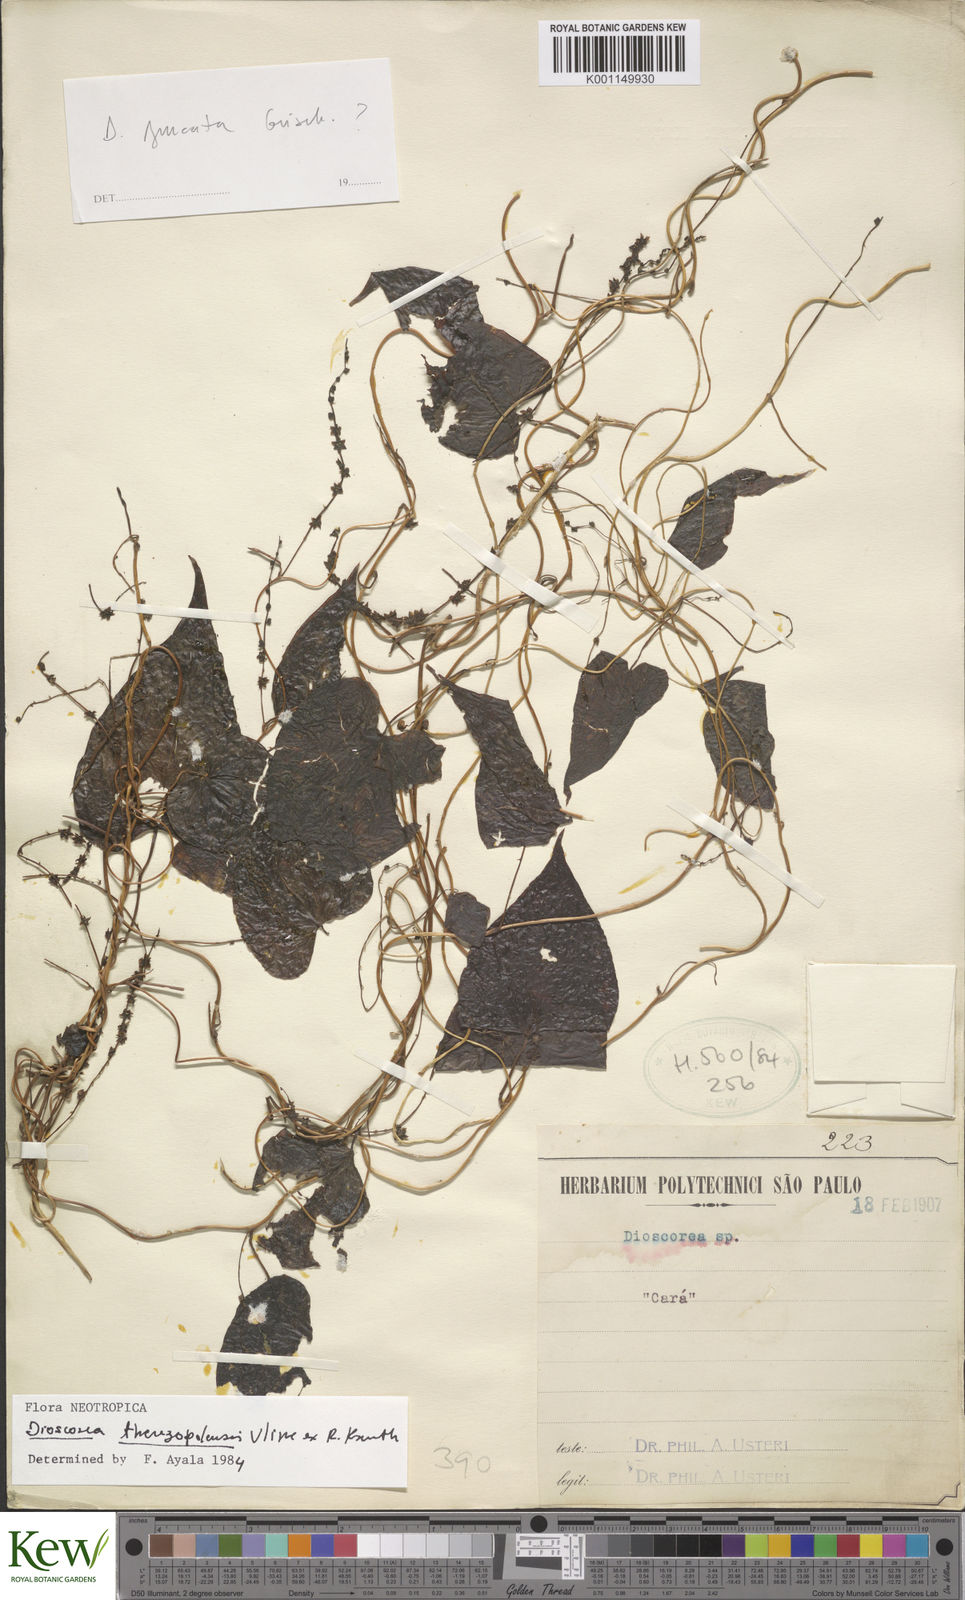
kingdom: Plantae
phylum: Tracheophyta
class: Liliopsida
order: Dioscoreales
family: Dioscoreaceae
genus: Dioscorea
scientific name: Dioscorea therezopolensis
